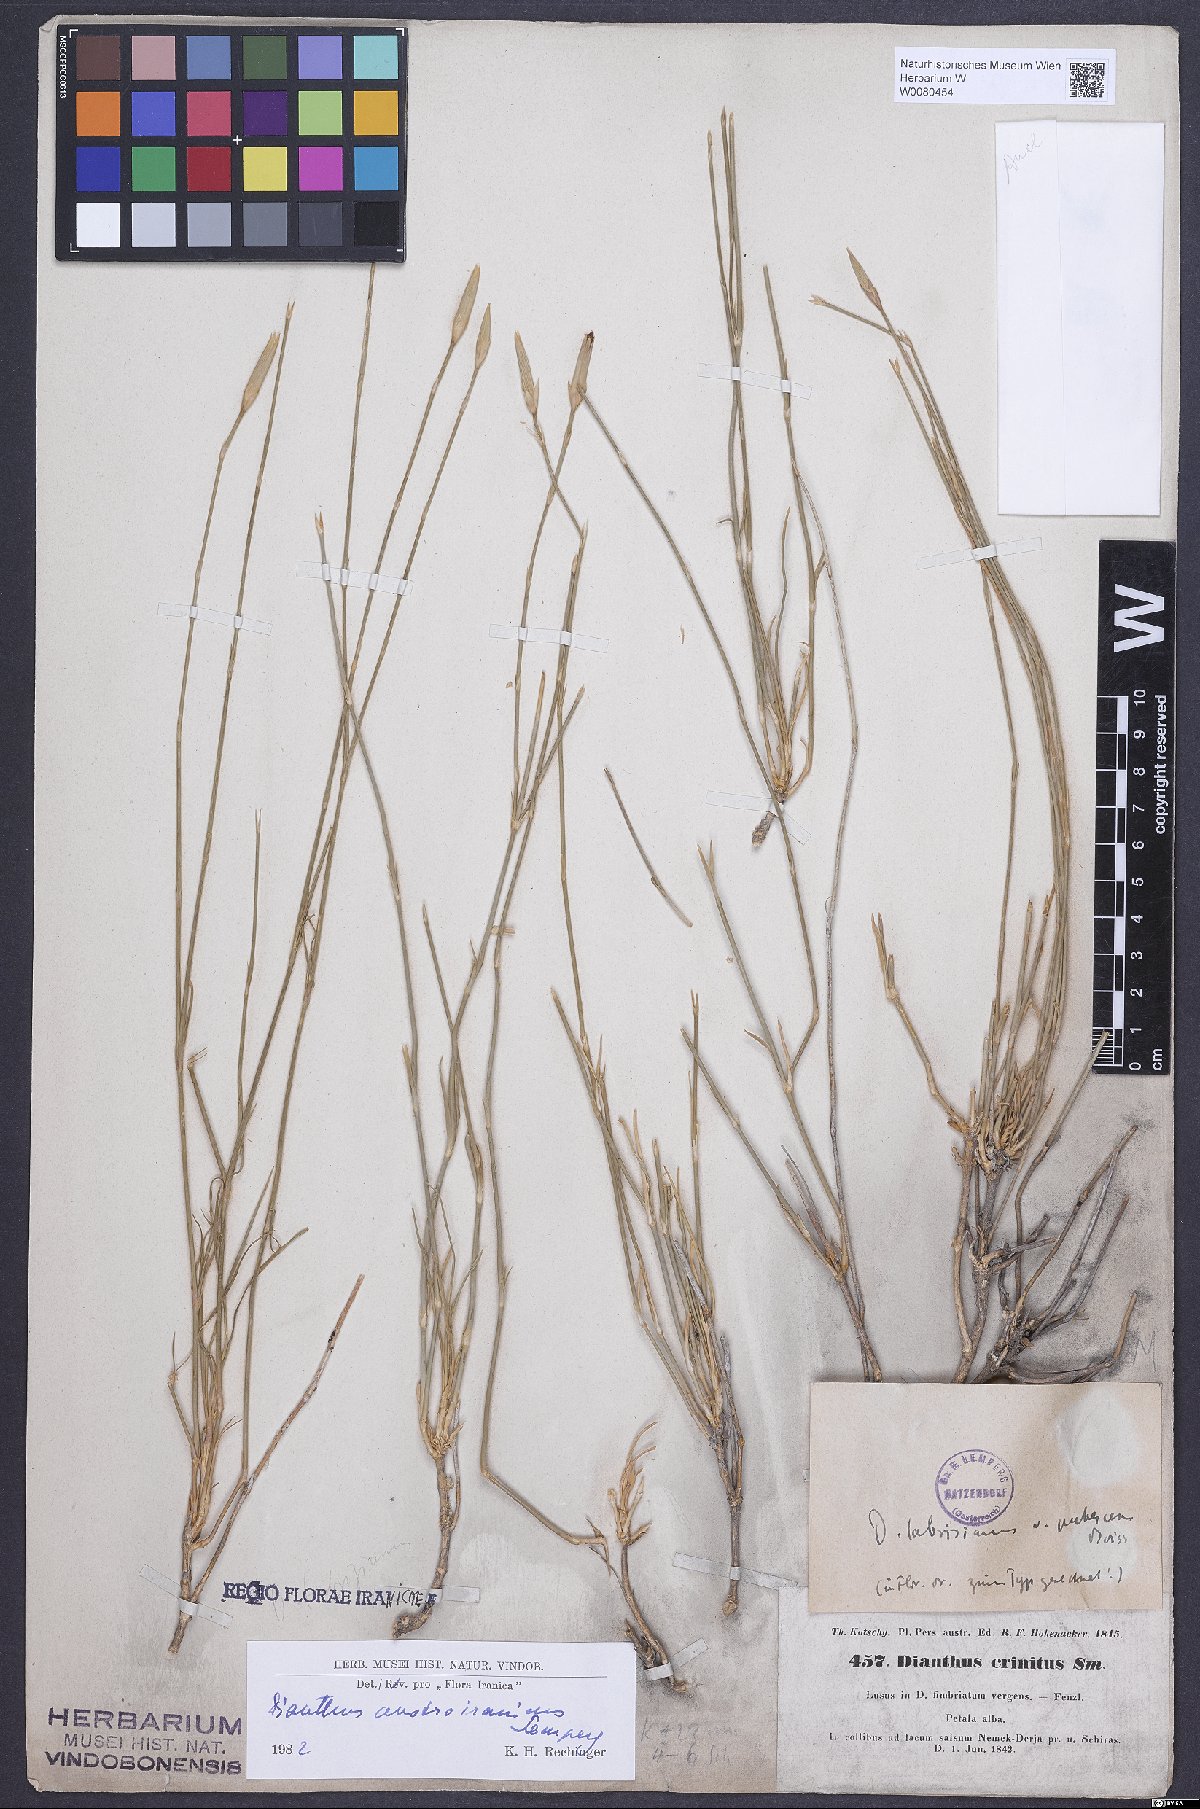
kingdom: Plantae
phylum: Tracheophyta
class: Magnoliopsida
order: Caryophyllales
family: Caryophyllaceae
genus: Dianthus
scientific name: Dianthus austroiranicus
